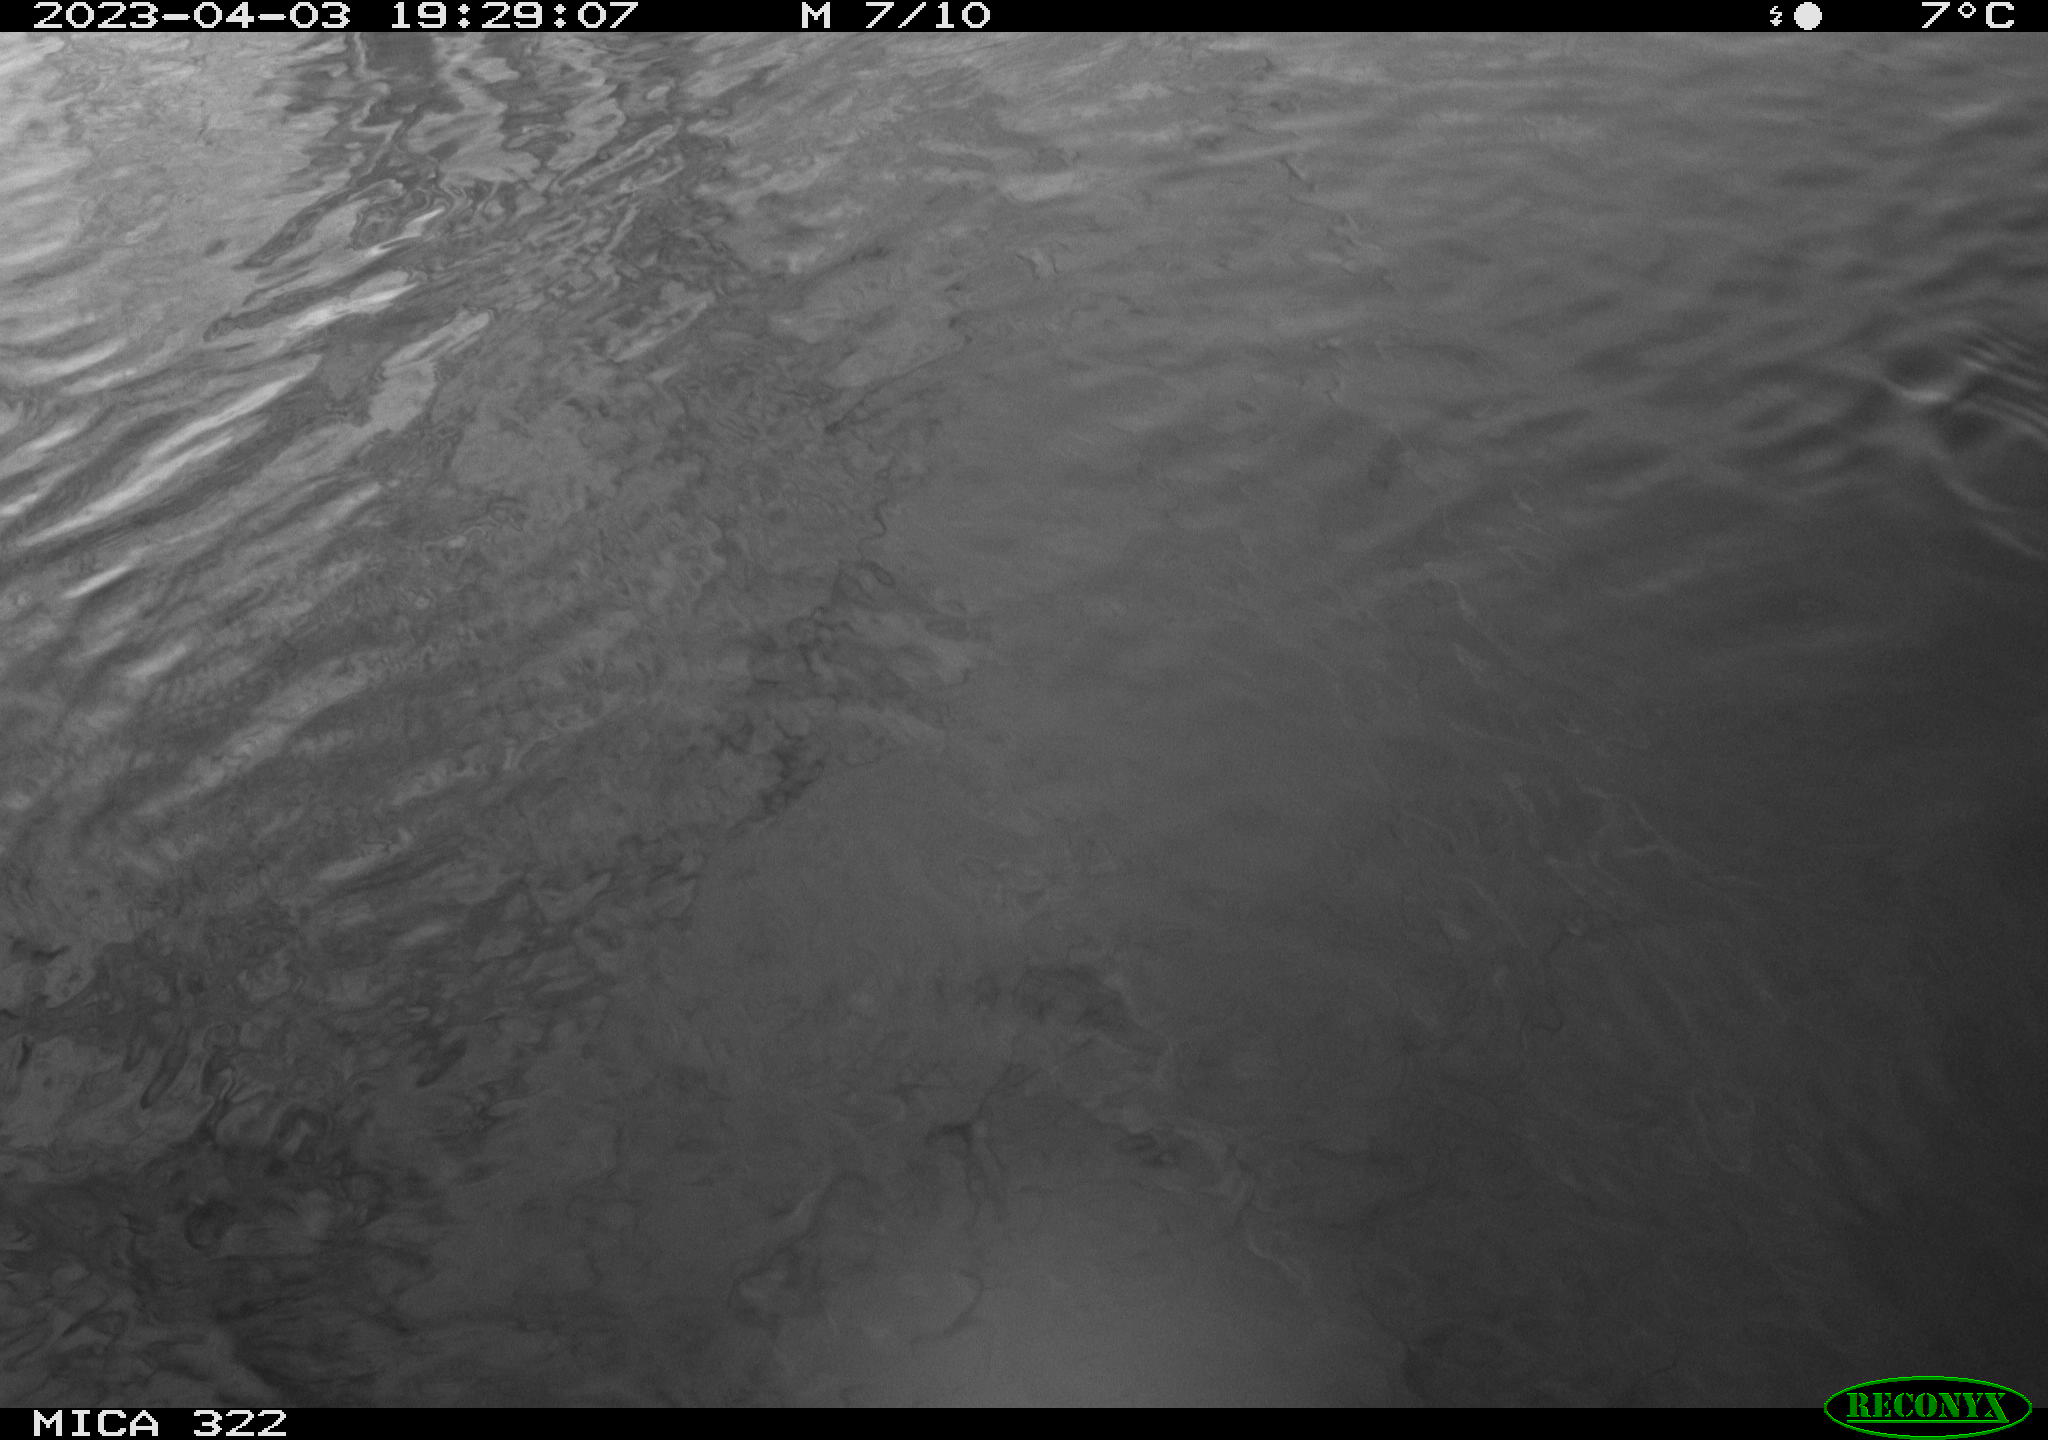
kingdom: Animalia
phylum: Chordata
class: Aves
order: Anseriformes
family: Anatidae
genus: Anas
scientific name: Anas
